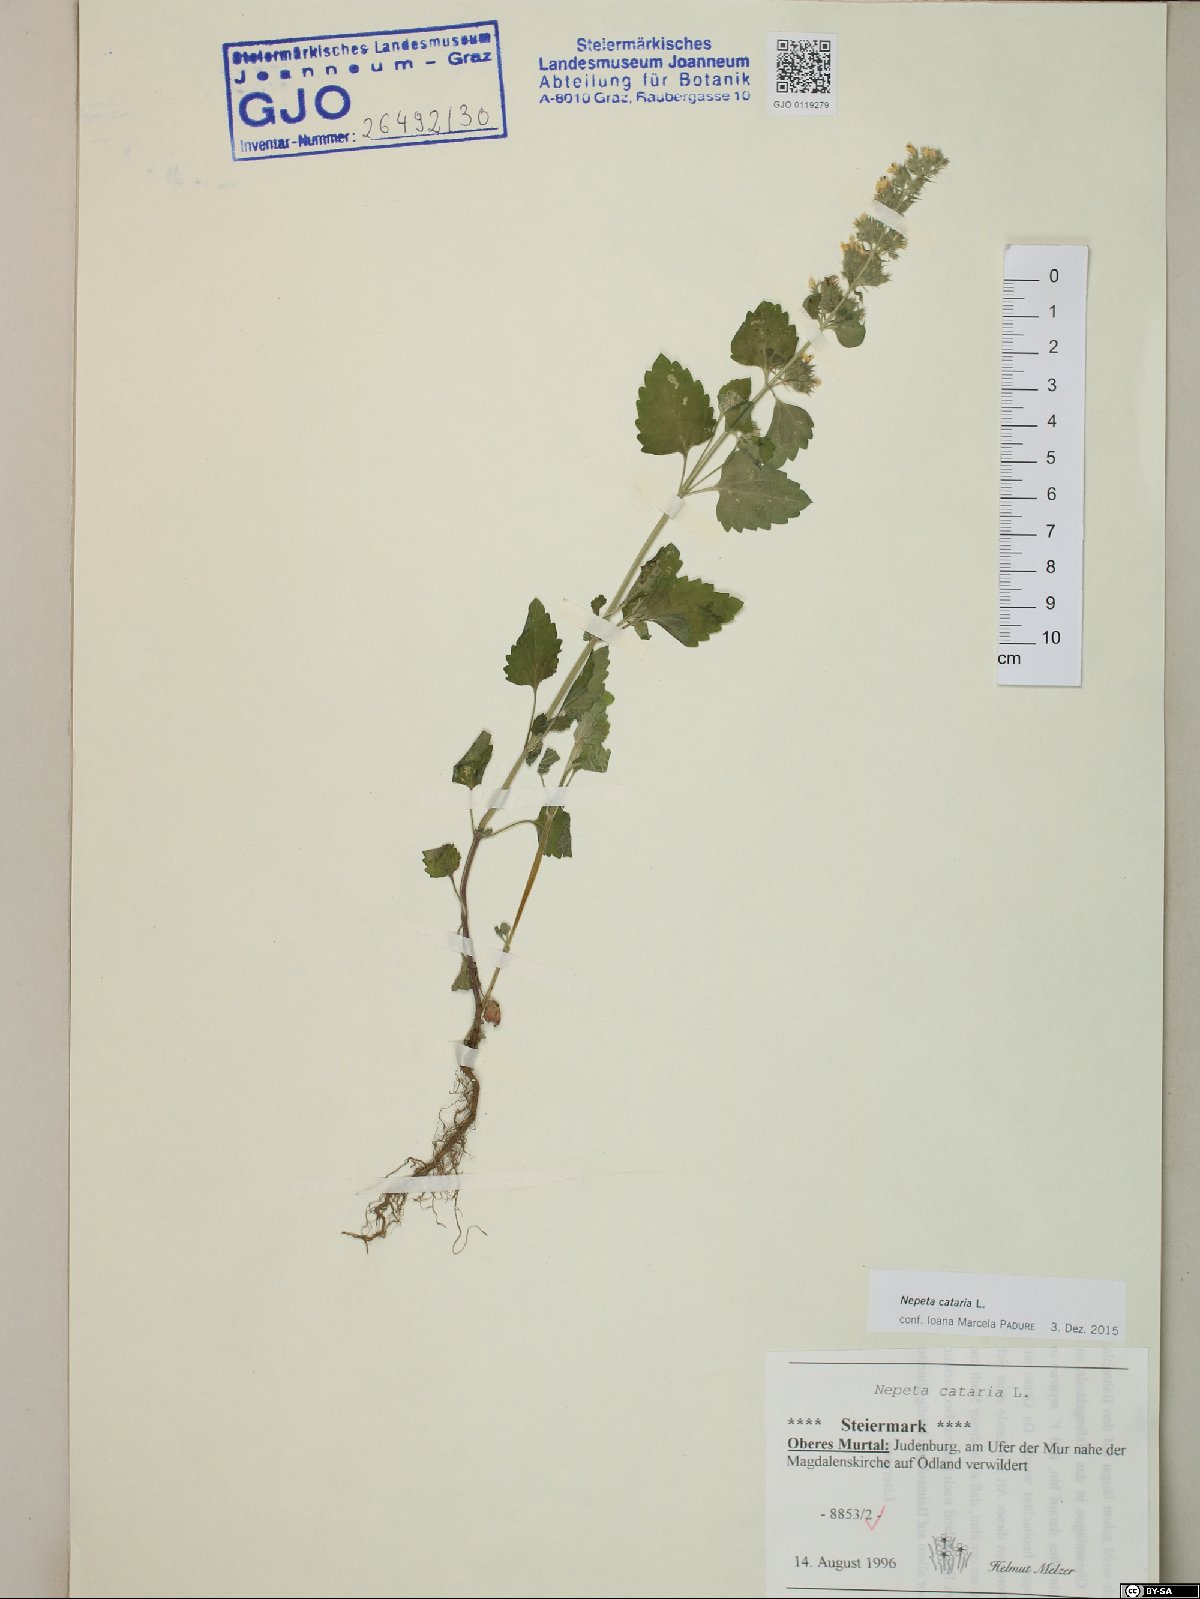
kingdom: Plantae
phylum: Tracheophyta
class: Magnoliopsida
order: Lamiales
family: Lamiaceae
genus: Nepeta
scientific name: Nepeta cataria
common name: Catnip
